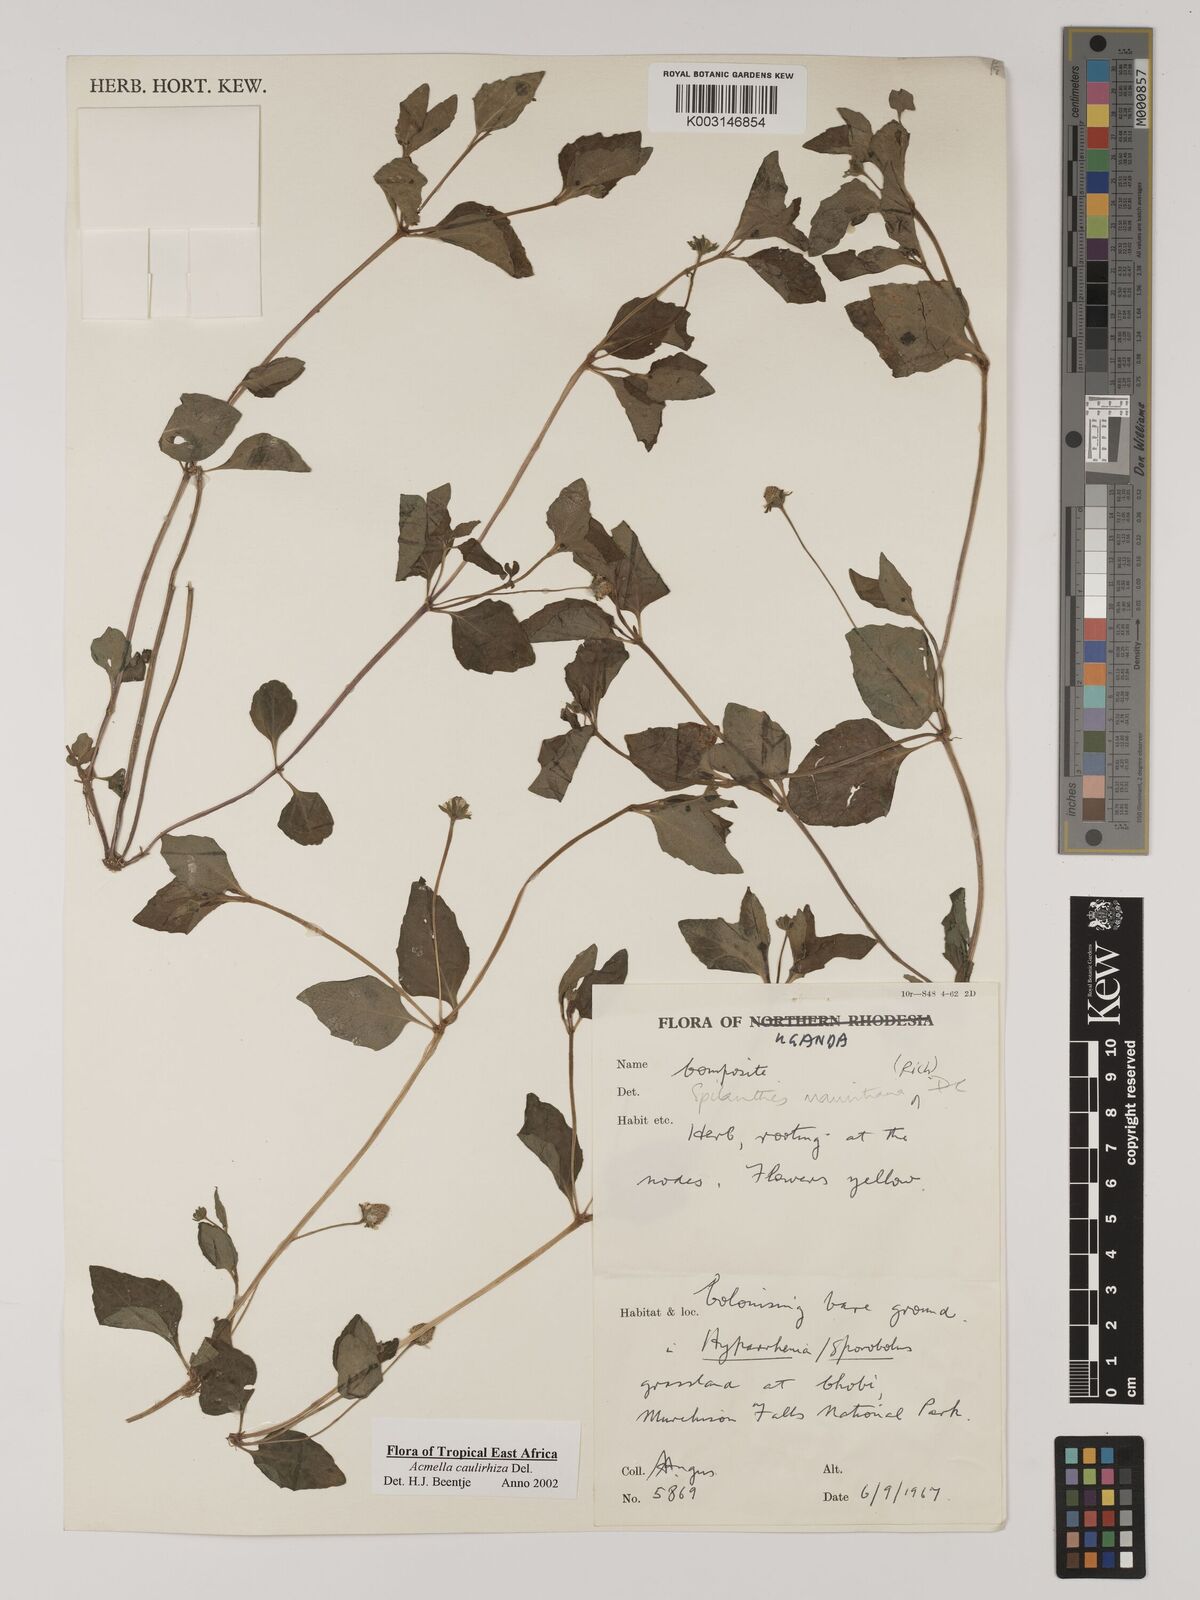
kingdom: Plantae
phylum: Tracheophyta
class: Magnoliopsida
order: Asterales
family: Asteraceae
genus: Acmella
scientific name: Acmella caulirhiza
